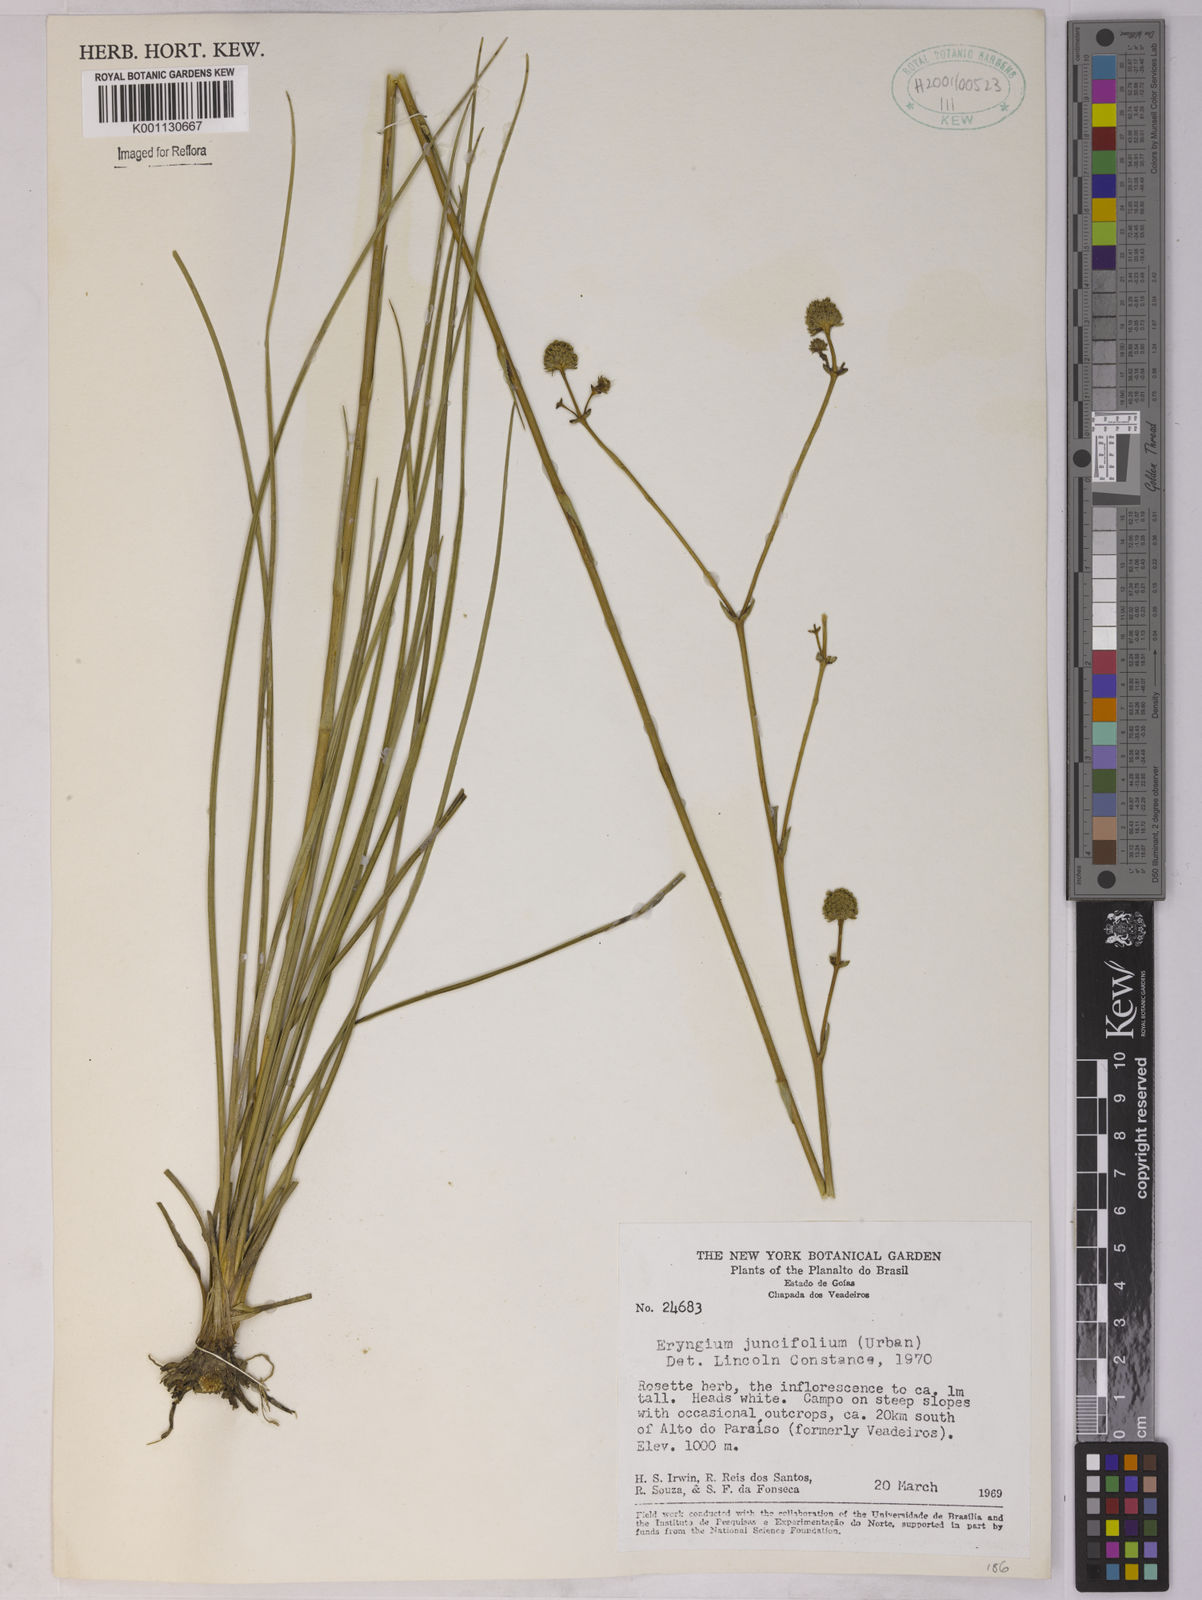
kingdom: Plantae
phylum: Tracheophyta
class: Magnoliopsida
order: Apiales
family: Apiaceae
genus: Eryngium
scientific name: Eryngium juncifolium
